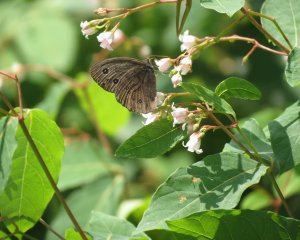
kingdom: Animalia
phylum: Arthropoda
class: Insecta
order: Lepidoptera
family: Nymphalidae
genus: Cercyonis
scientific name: Cercyonis pegala
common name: Common Wood-Nymph
